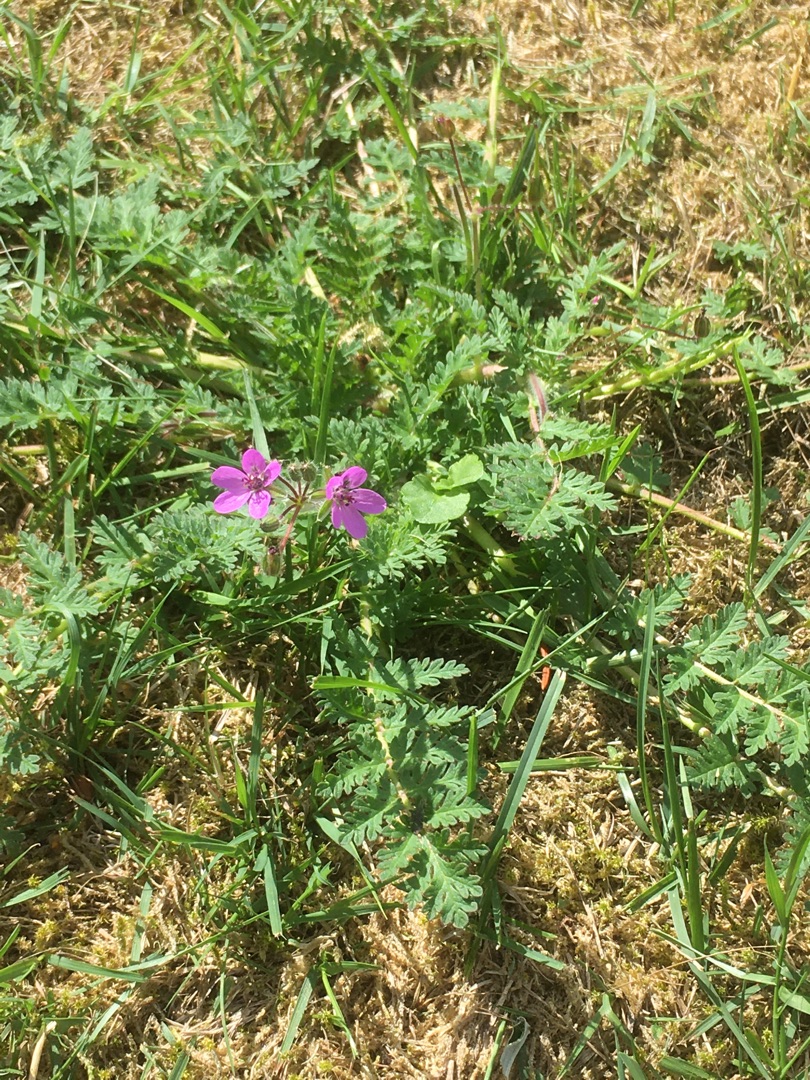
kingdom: Plantae
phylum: Tracheophyta
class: Magnoliopsida
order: Geraniales
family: Geraniaceae
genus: Erodium
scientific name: Erodium cicutarium
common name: Hejrenæb
